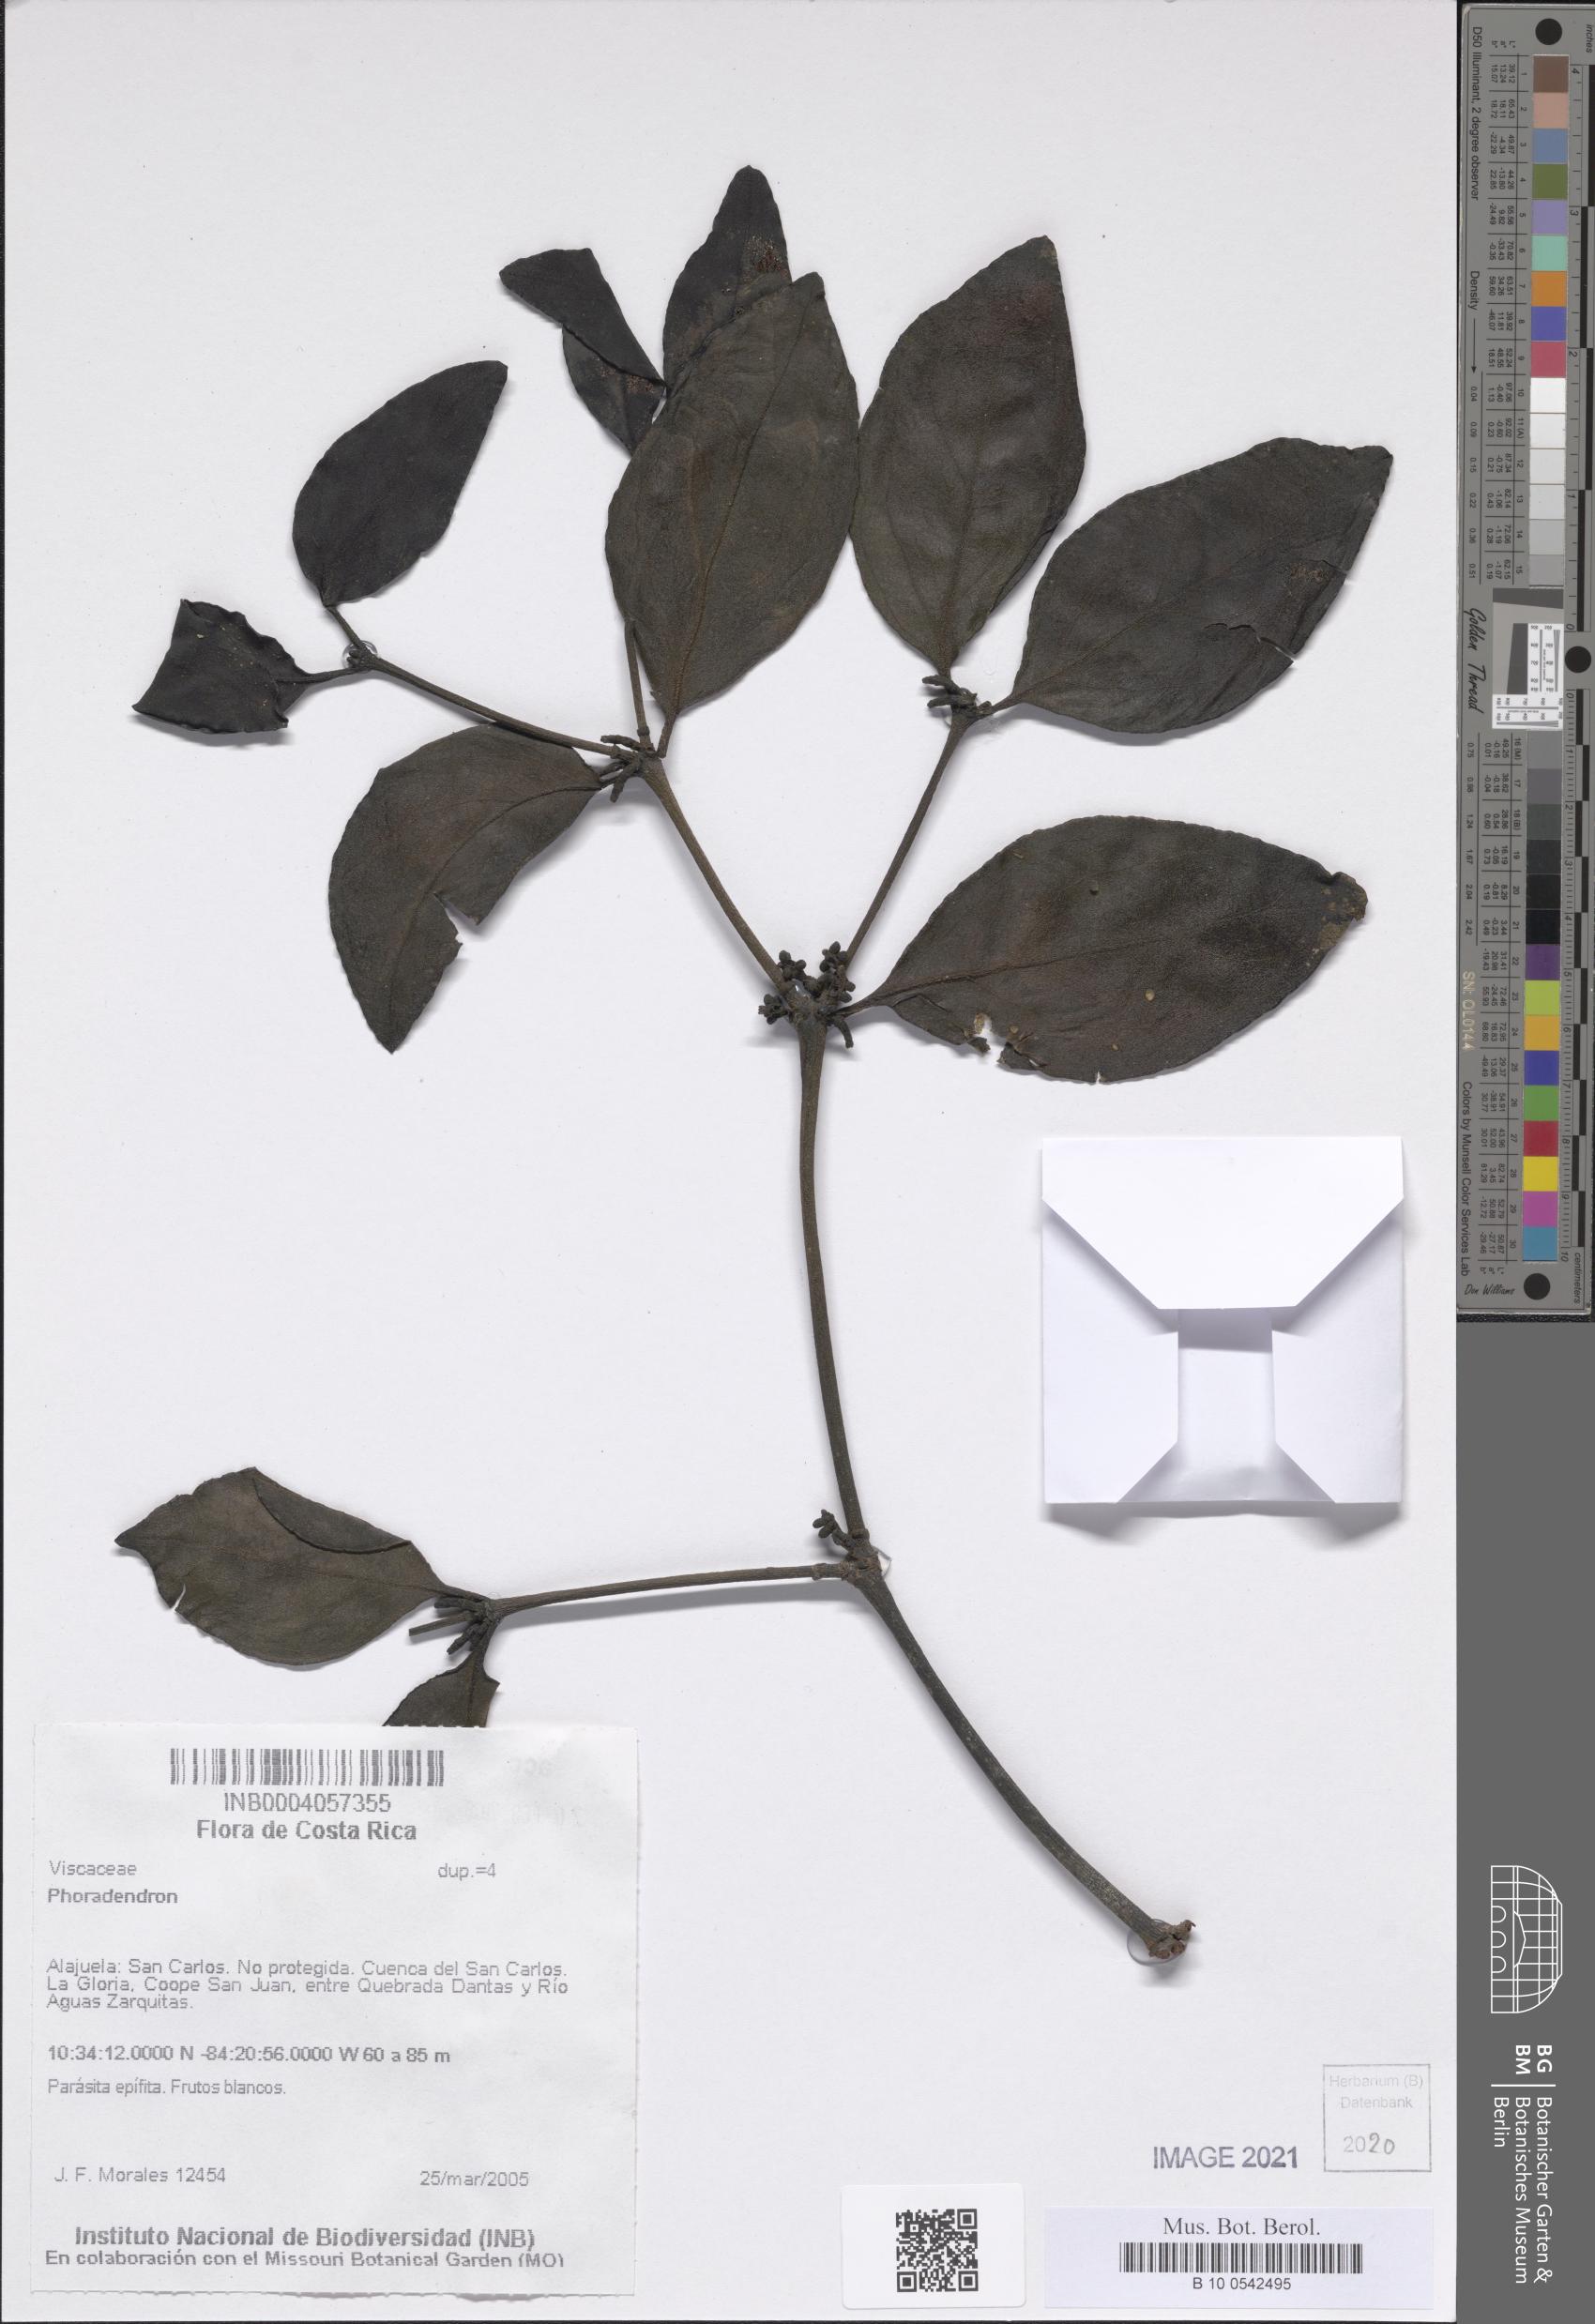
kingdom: Plantae
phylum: Tracheophyta
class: Magnoliopsida
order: Santalales
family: Viscaceae
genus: Phoradendron
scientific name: Phoradendron
